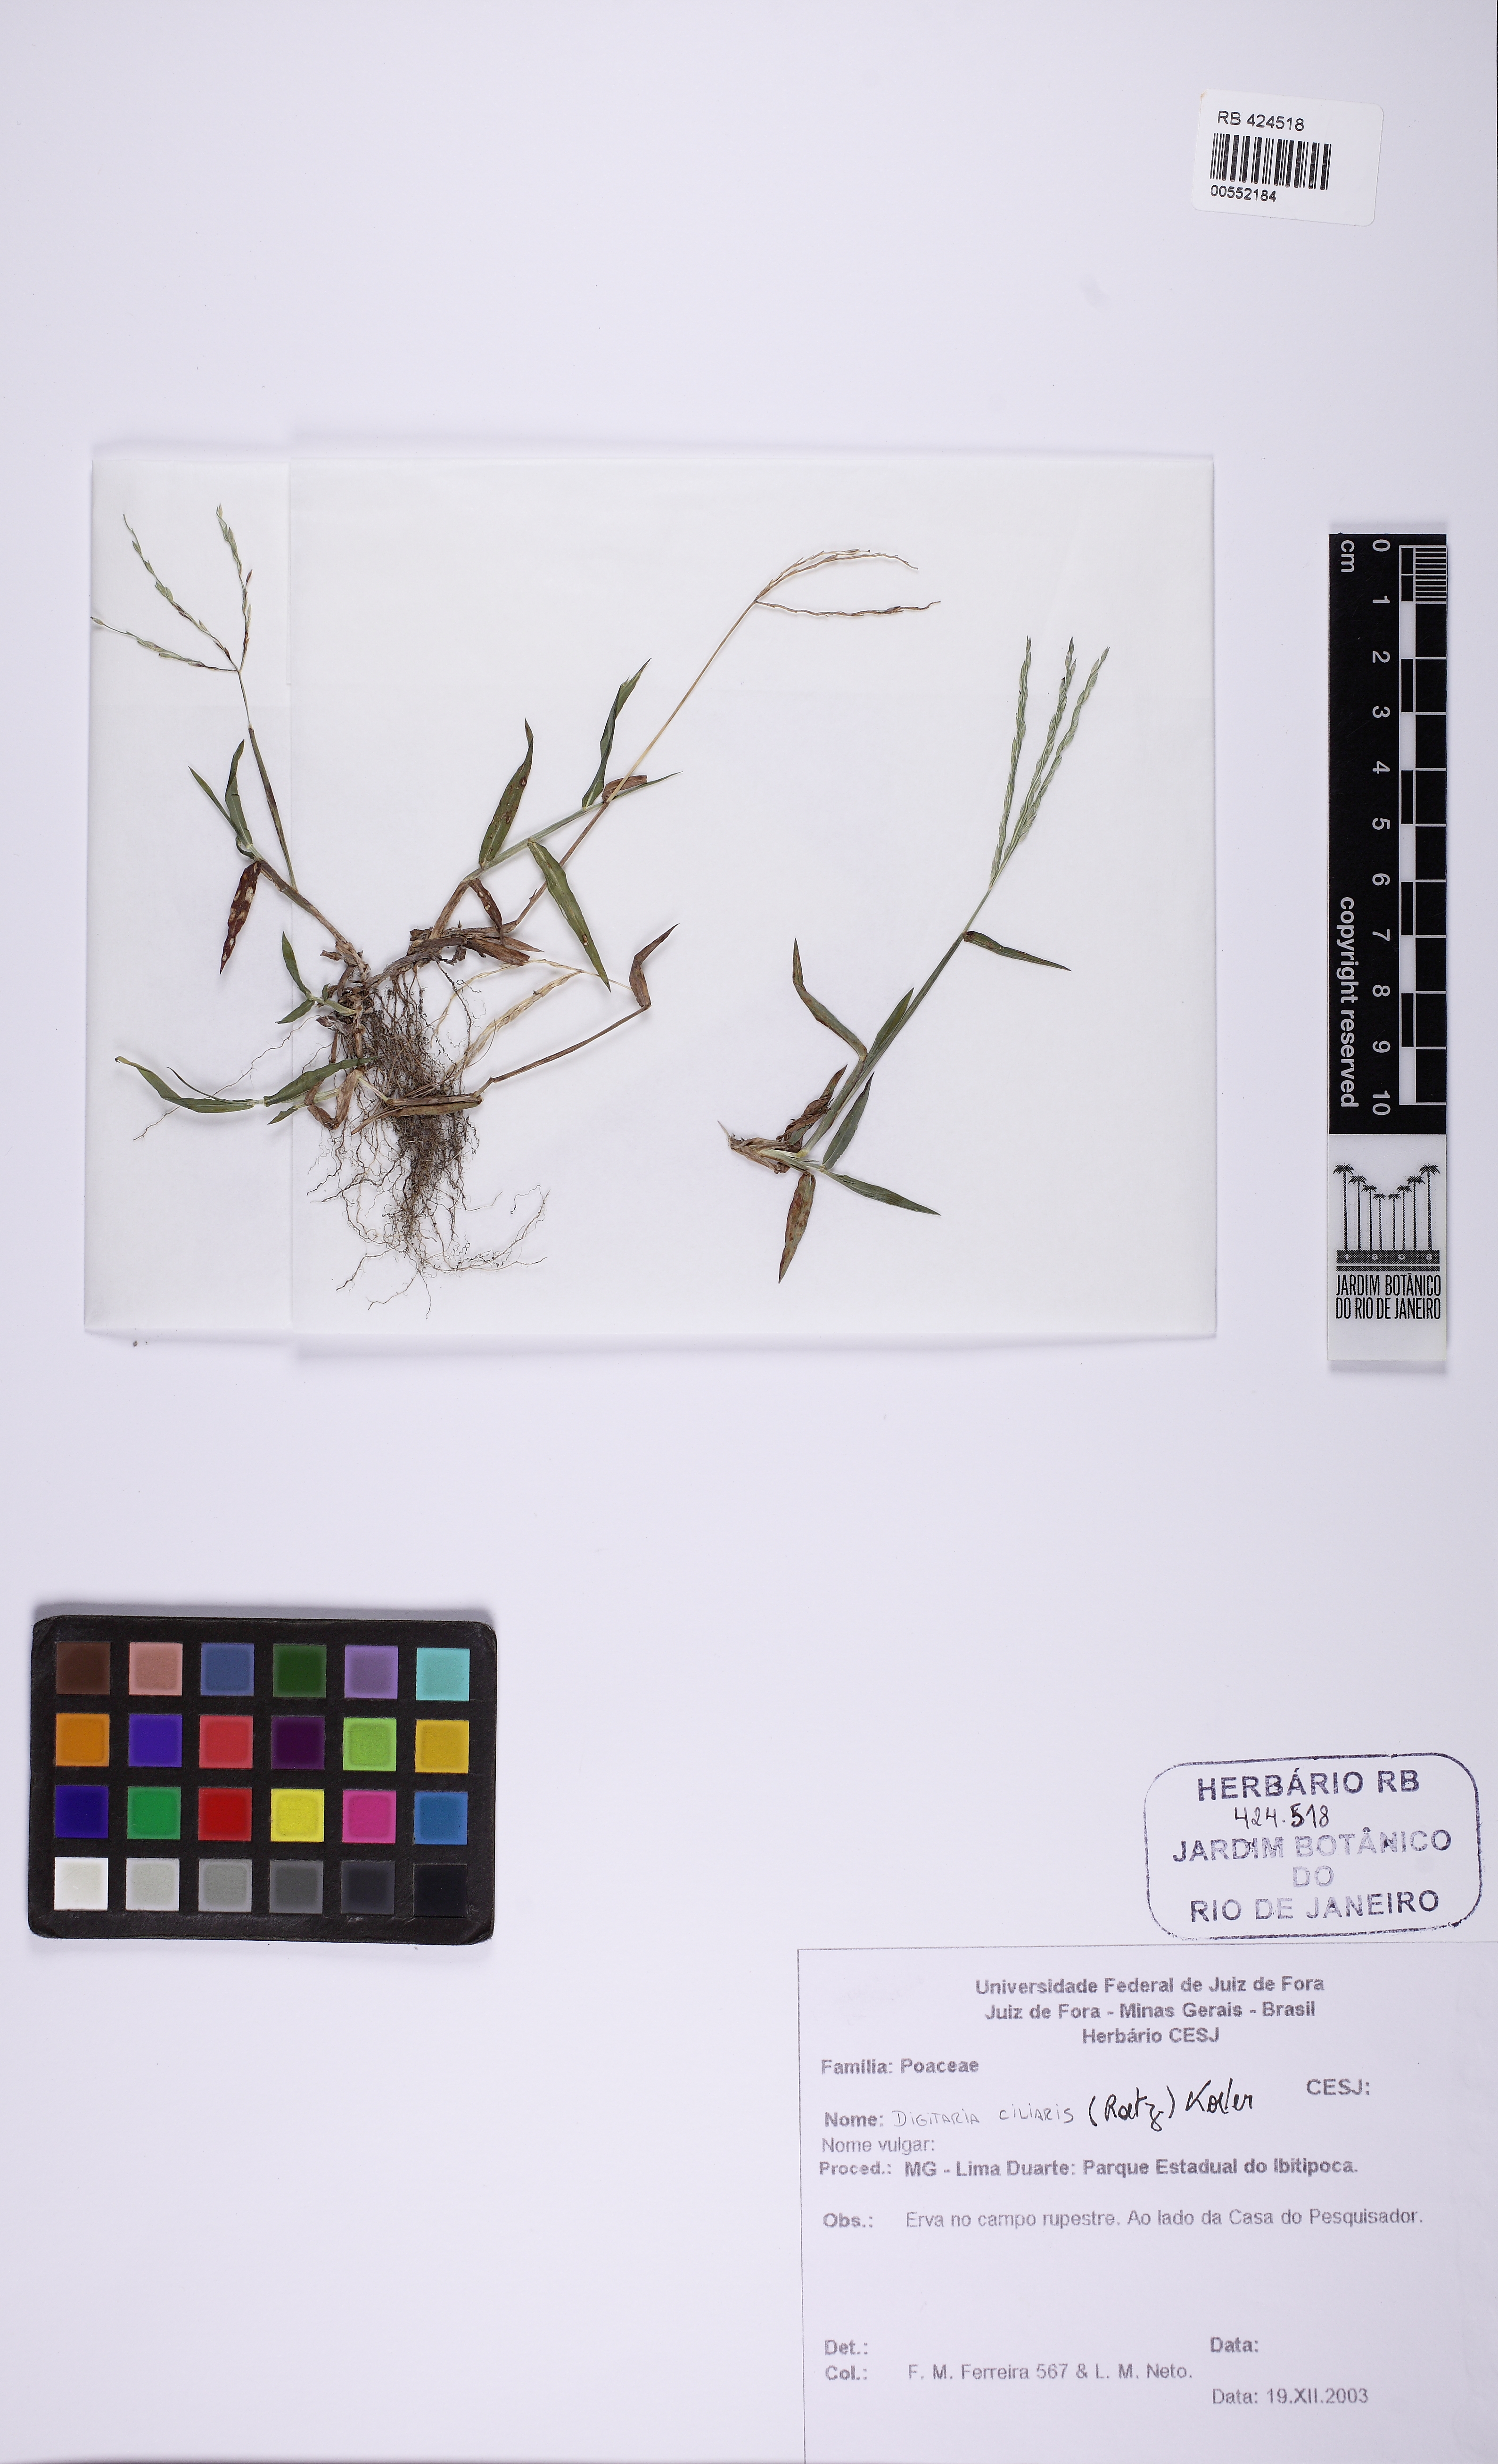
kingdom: Plantae
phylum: Tracheophyta
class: Liliopsida
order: Poales
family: Poaceae
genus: Digitaria
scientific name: Digitaria ciliaris
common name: Tropical finger-grass
